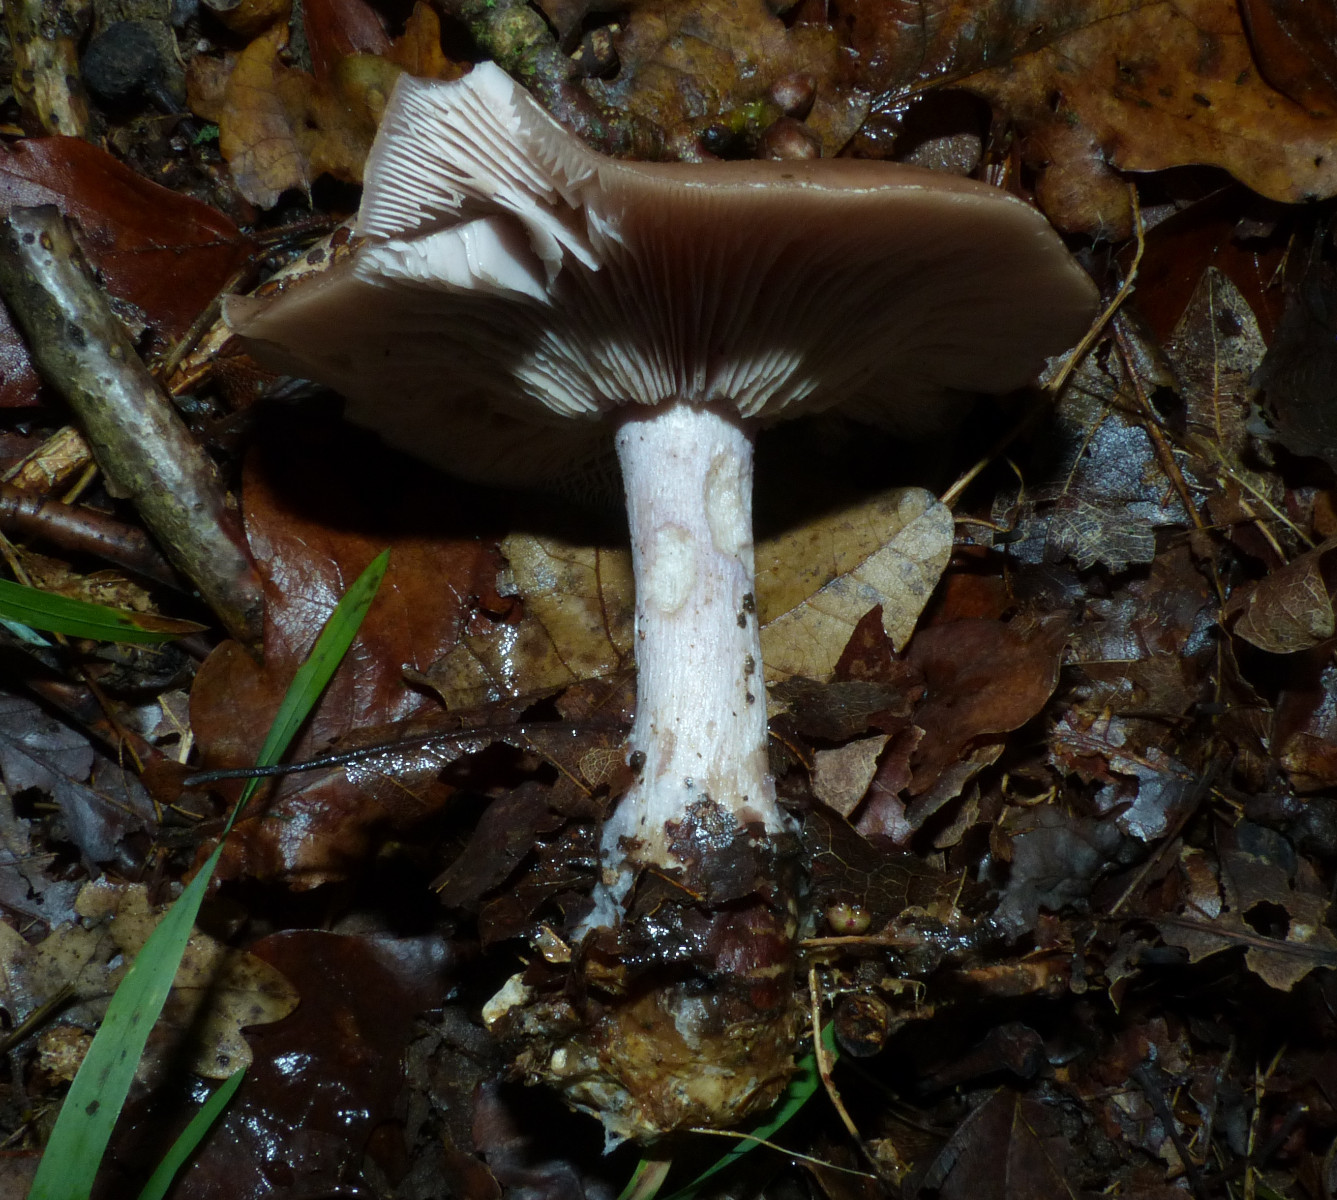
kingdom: Fungi
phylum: Basidiomycota
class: Agaricomycetes
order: Agaricales
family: Tricholomataceae
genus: Lepista
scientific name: Lepista personata
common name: bleg hekseringshat
